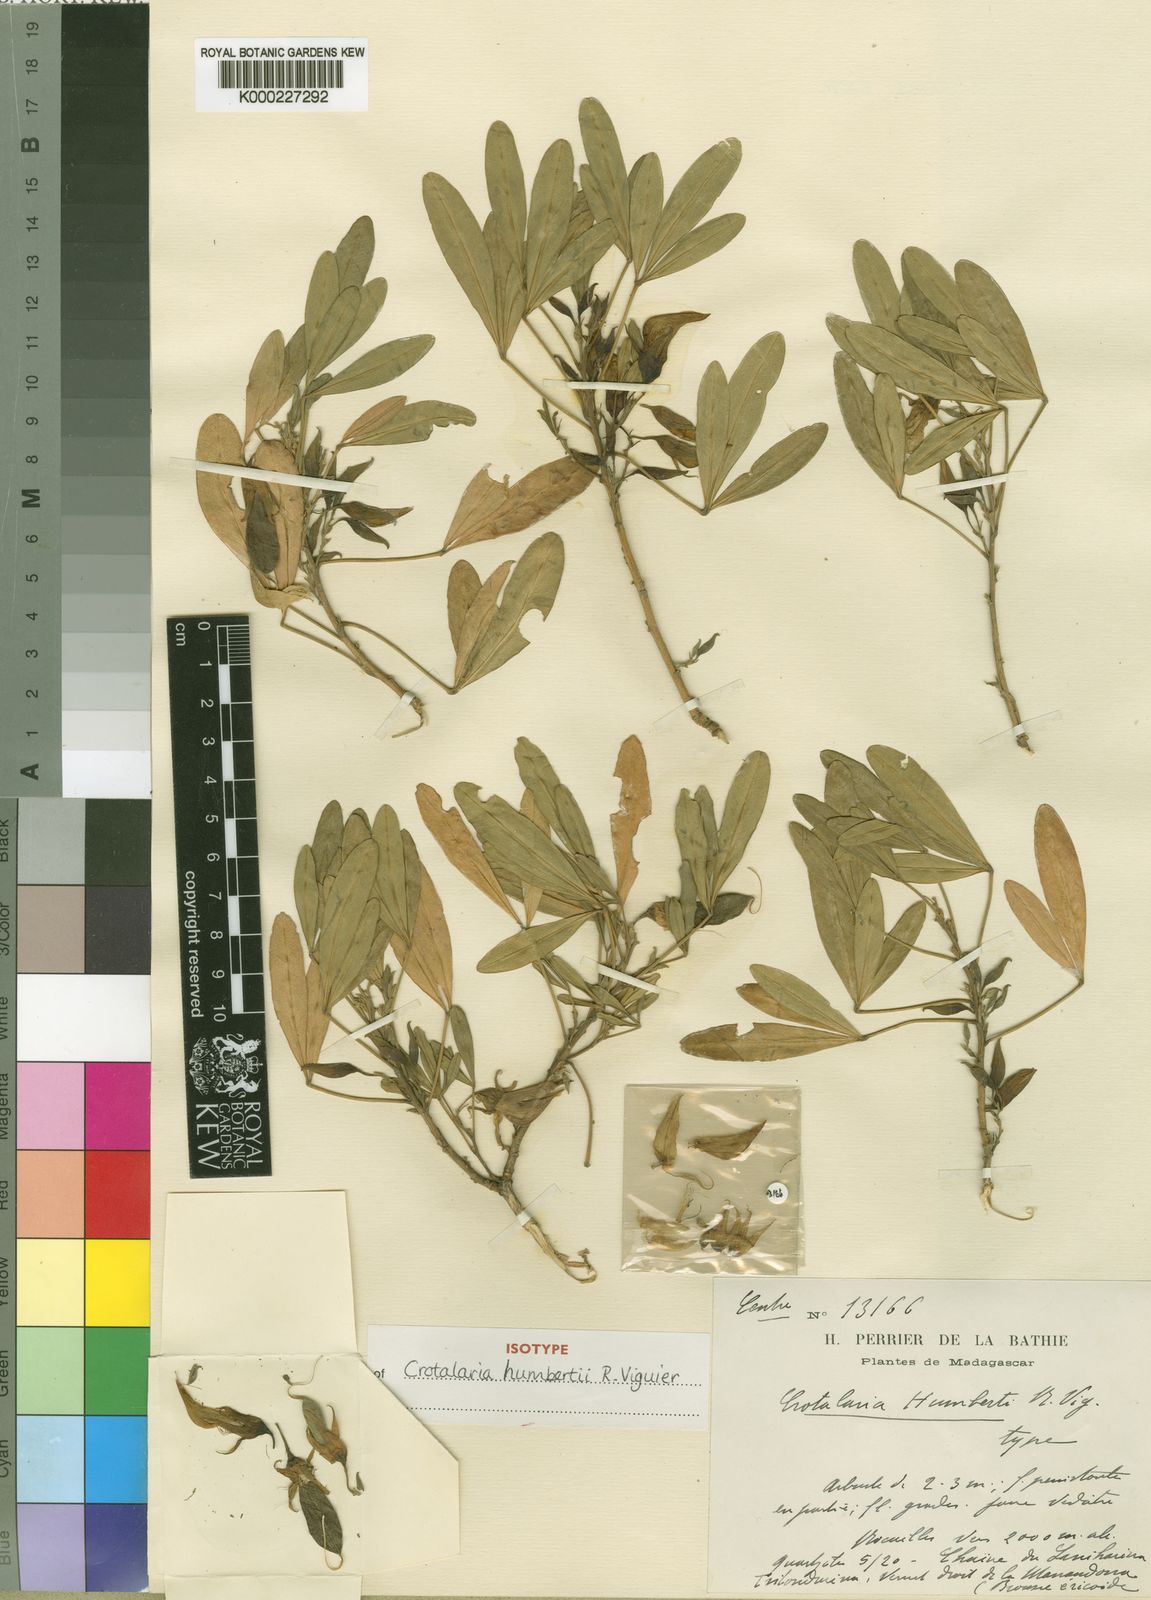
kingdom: Plantae
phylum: Tracheophyta
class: Magnoliopsida
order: Fabales
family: Fabaceae
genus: Crotalaria
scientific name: Crotalaria humbertii
